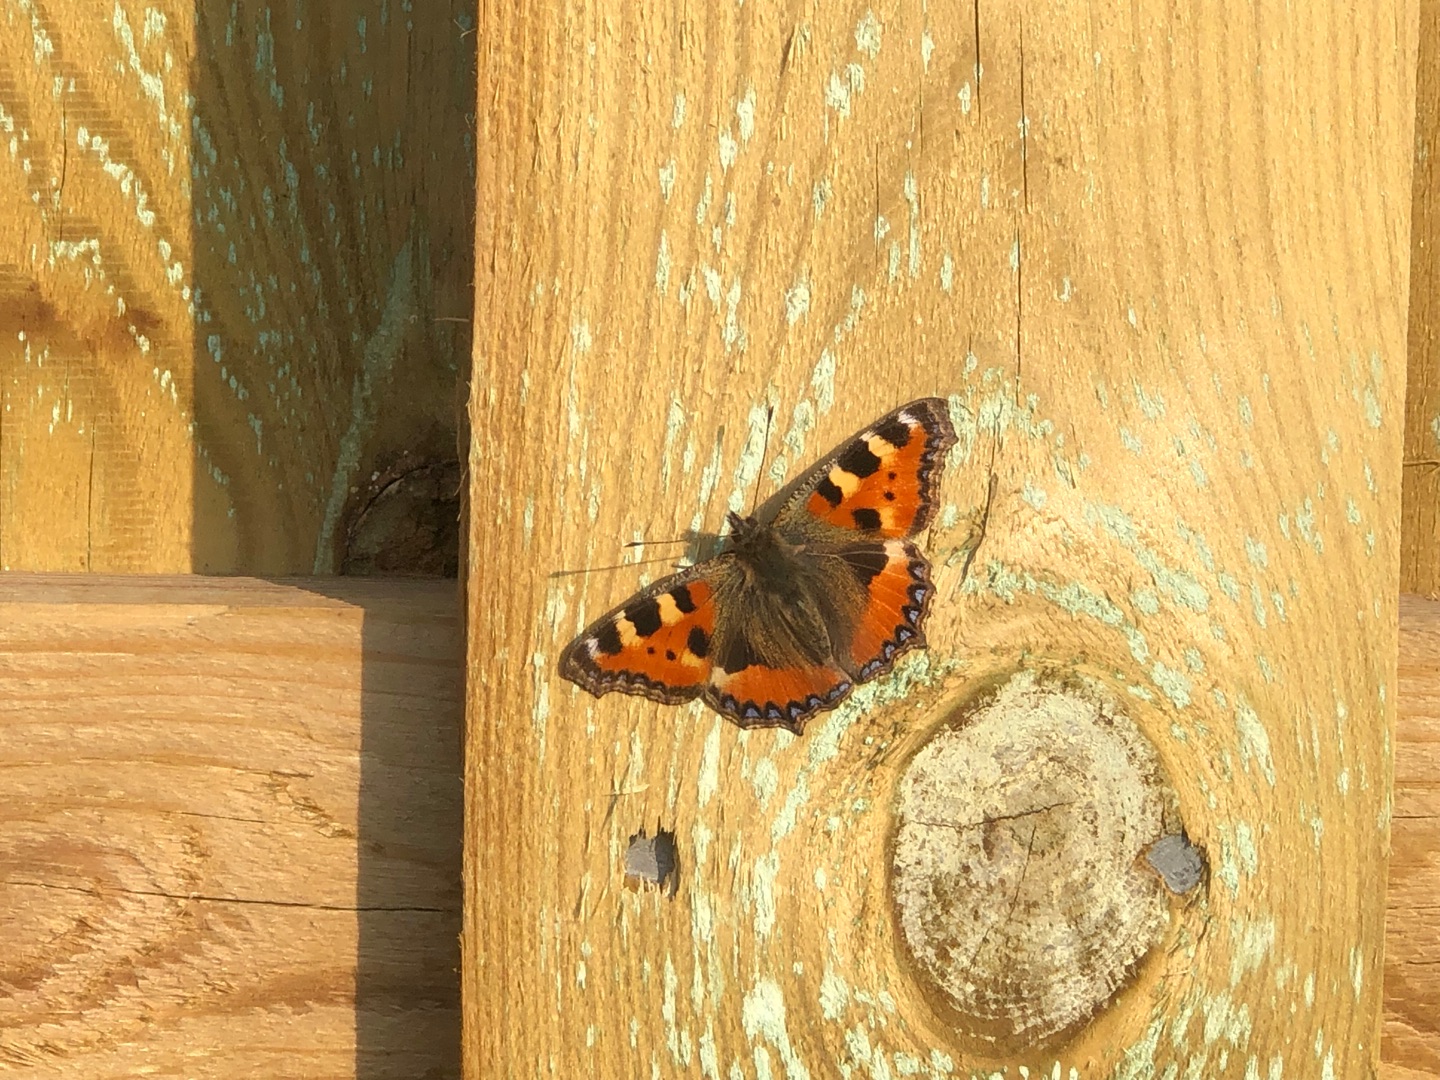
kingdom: Animalia
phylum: Arthropoda
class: Insecta
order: Lepidoptera
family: Nymphalidae
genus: Aglais
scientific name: Aglais urticae
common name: Nældens takvinge
